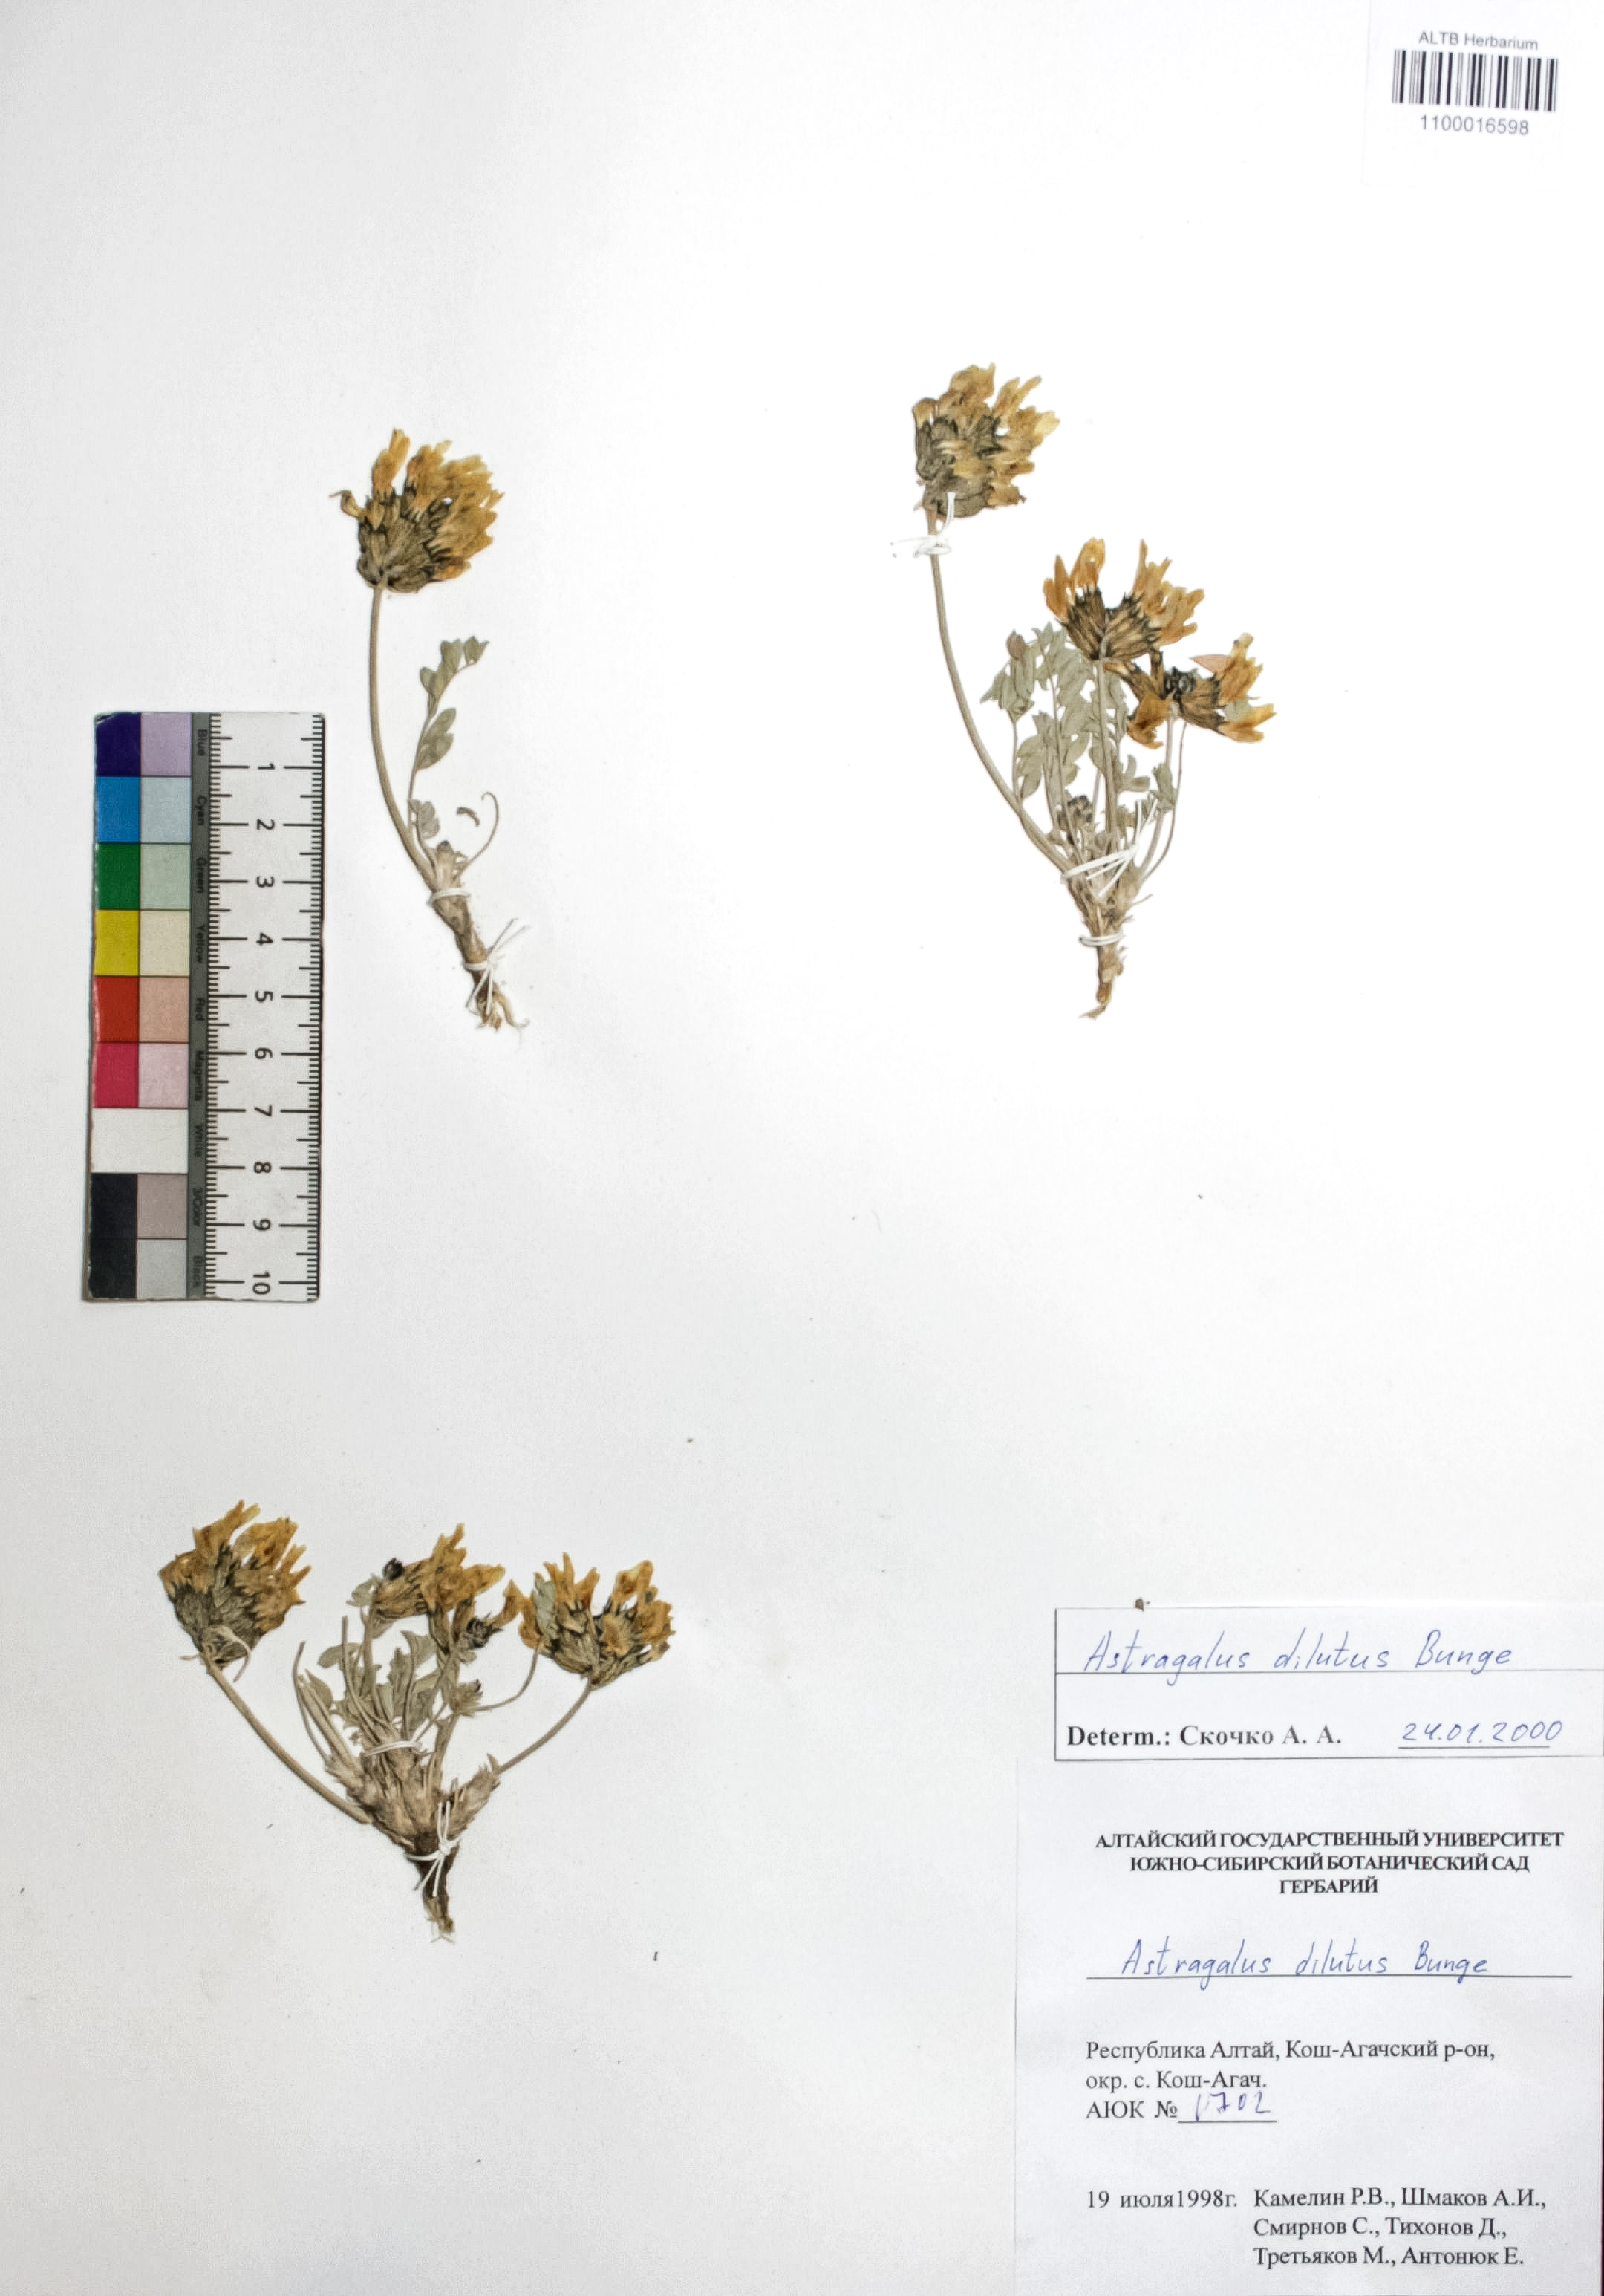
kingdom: Plantae
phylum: Tracheophyta
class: Magnoliopsida
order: Fabales
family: Fabaceae
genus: Astragalus
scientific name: Astragalus dilutus
